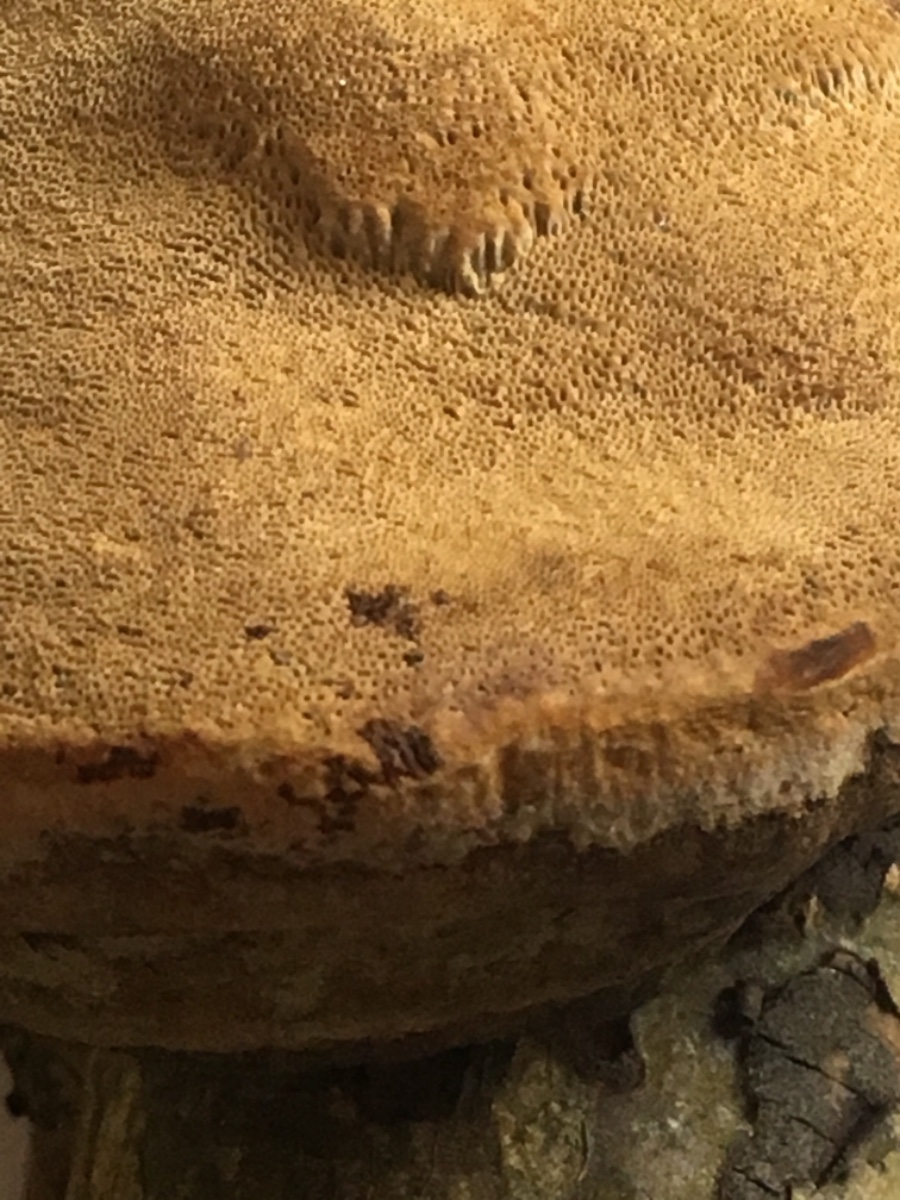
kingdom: Fungi
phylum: Basidiomycota
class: Agaricomycetes
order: Hymenochaetales
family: Hymenochaetaceae
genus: Phellinus
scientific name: Phellinus pomaceus
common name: blomme-ildporesvamp
